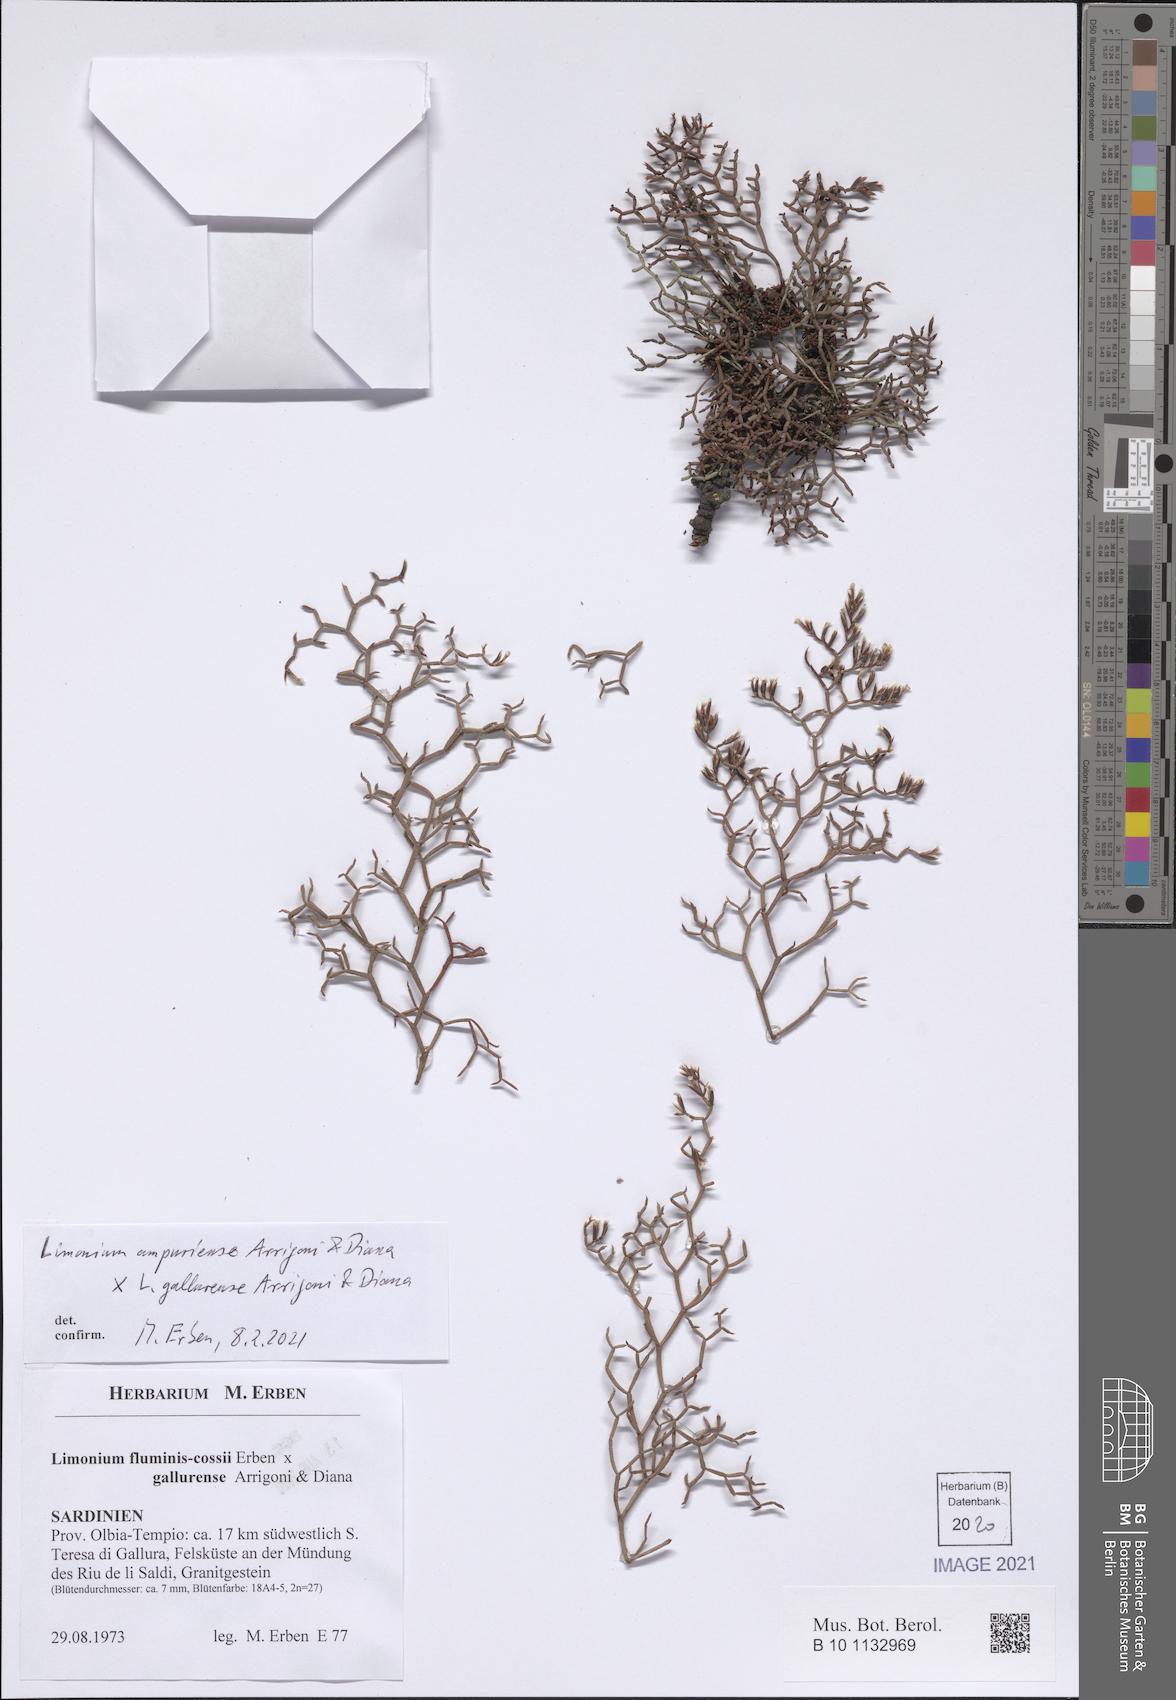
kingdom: Plantae
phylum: Tracheophyta
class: Magnoliopsida
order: Caryophyllales
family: Plumbaginaceae
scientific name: Plumbaginaceae
